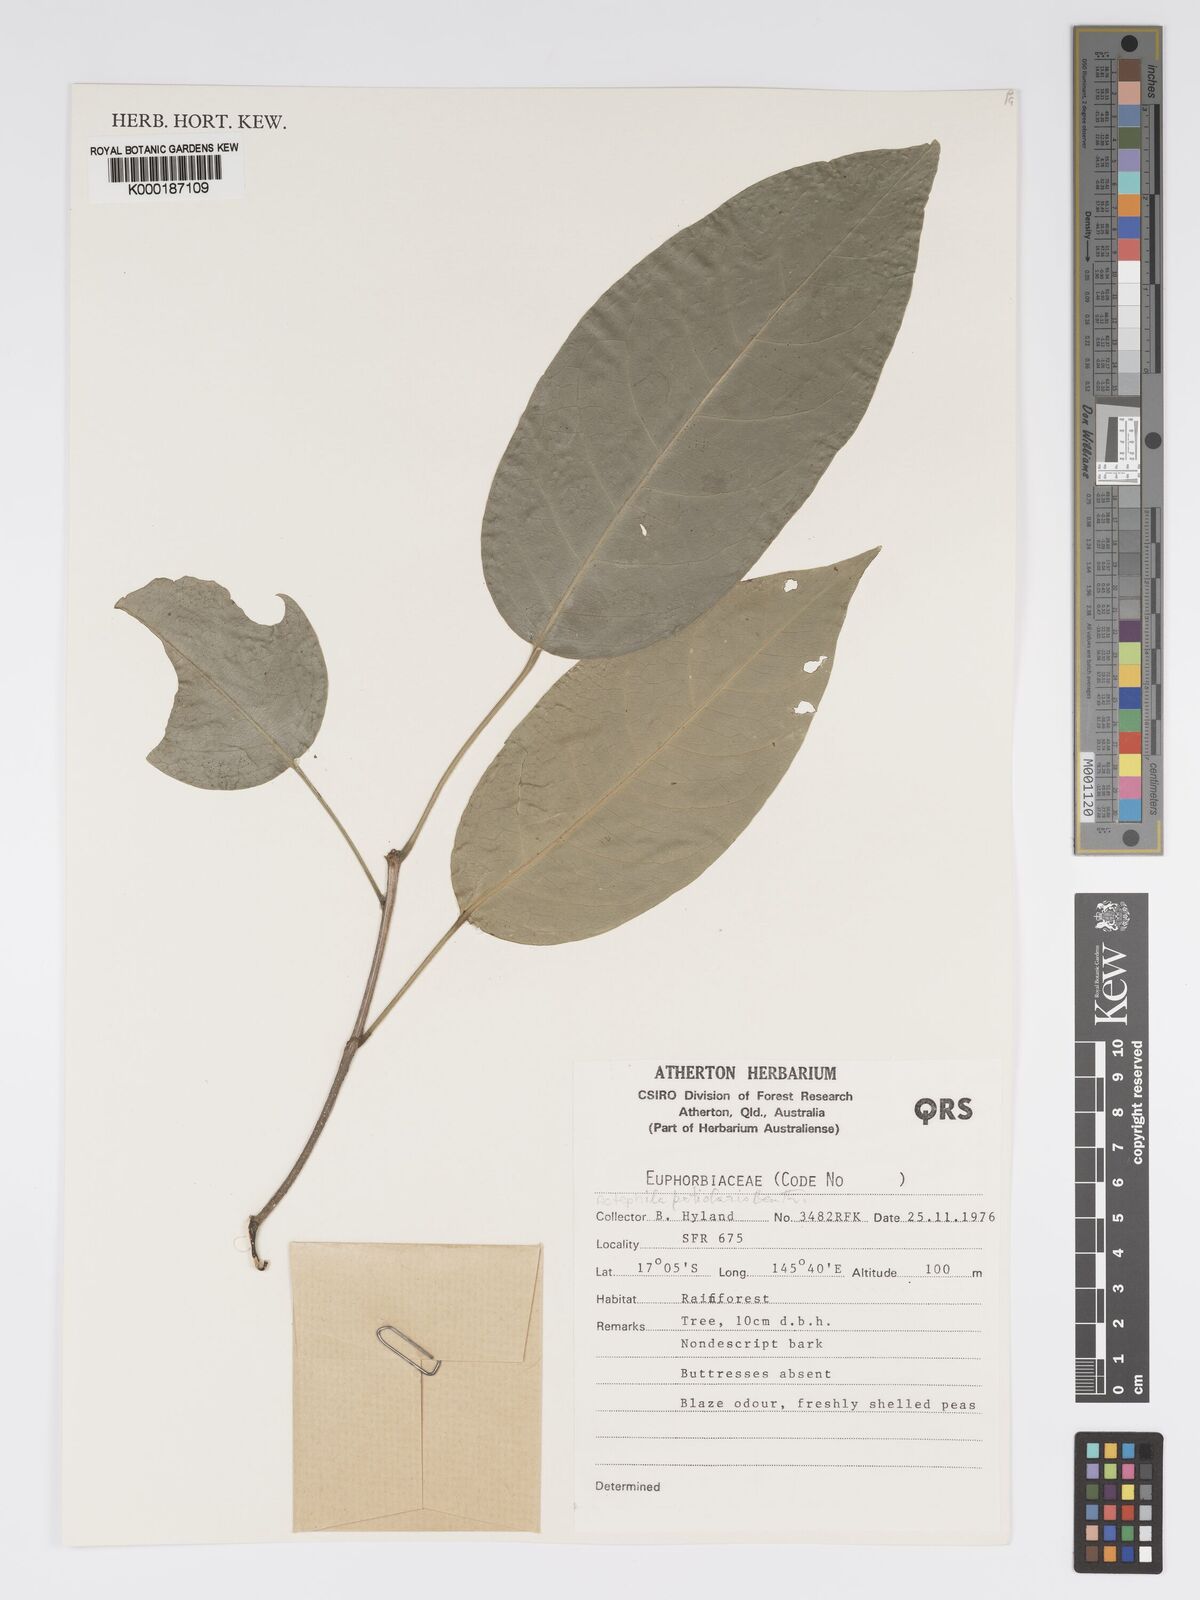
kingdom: Plantae
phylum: Tracheophyta
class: Magnoliopsida
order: Malpighiales
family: Phyllanthaceae
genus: Actephila
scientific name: Actephila lindleyi
